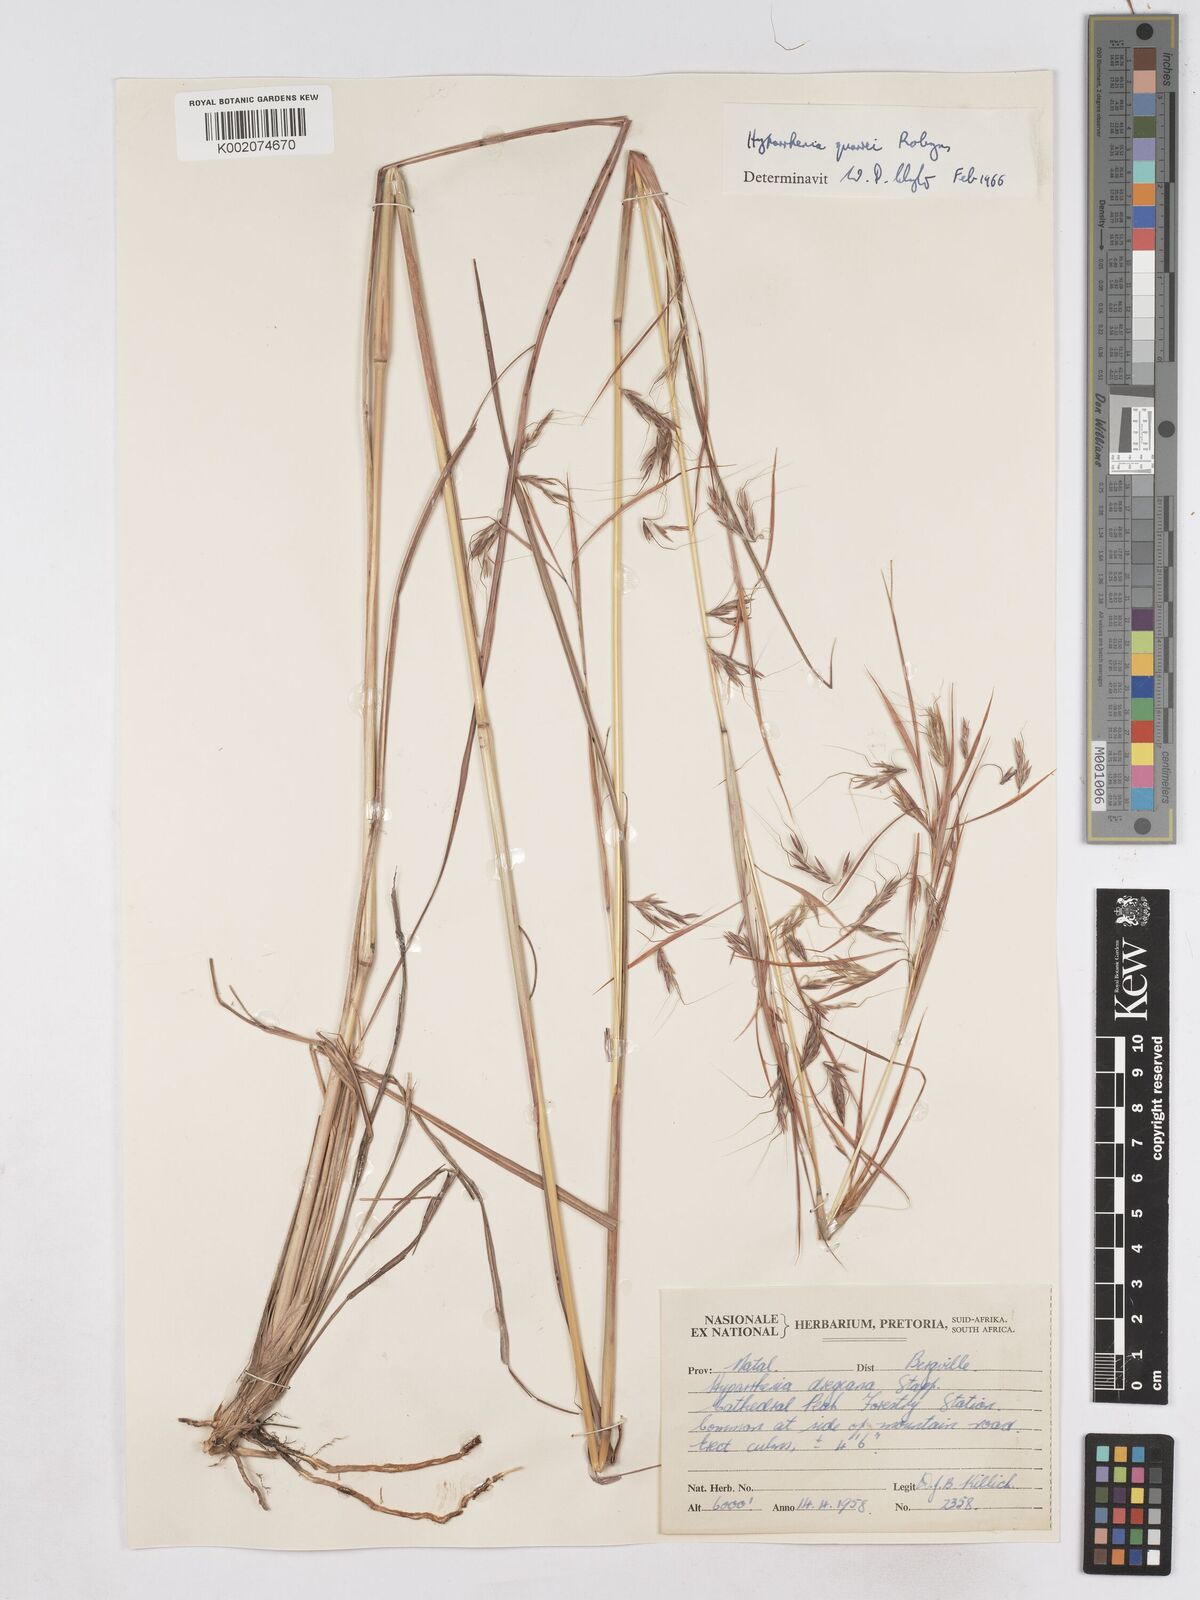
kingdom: Plantae
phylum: Tracheophyta
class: Liliopsida
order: Poales
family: Poaceae
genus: Hyparrhenia
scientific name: Hyparrhenia quarrei
